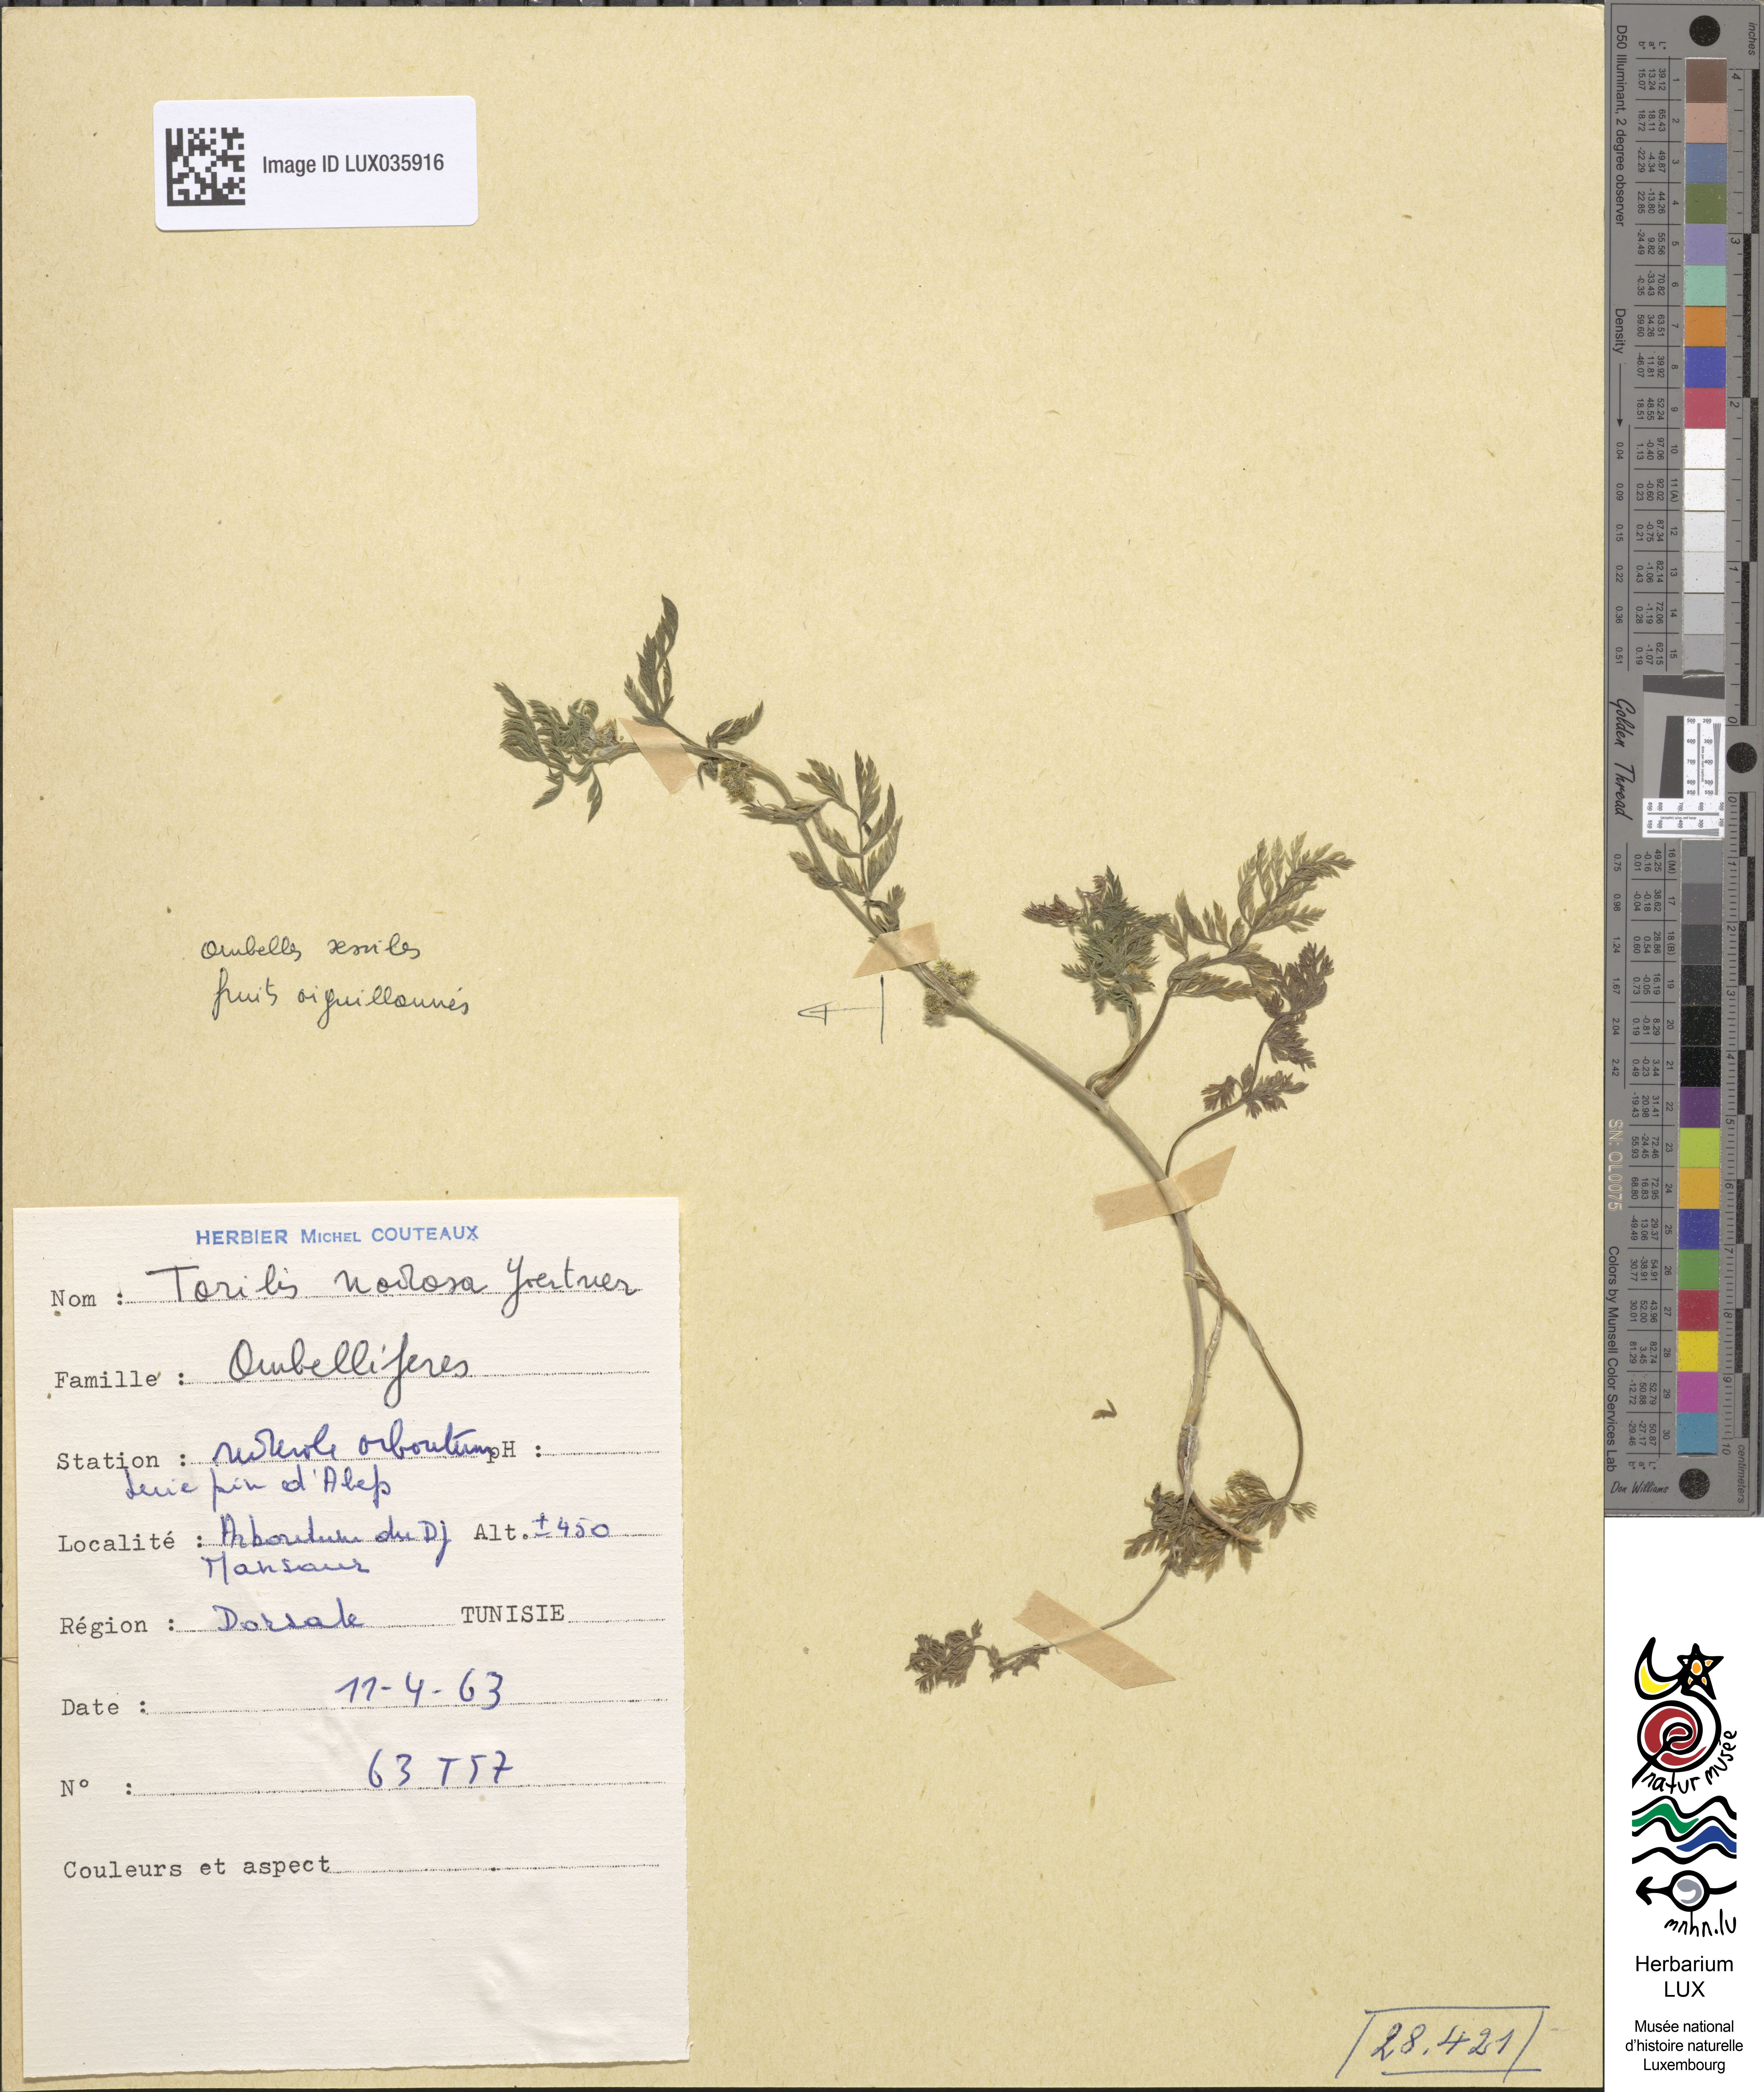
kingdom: Plantae
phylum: Tracheophyta
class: Magnoliopsida
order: Apiales
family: Apiaceae
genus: Torilis
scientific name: Torilis nodosa
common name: Knotted hedge-parsley
